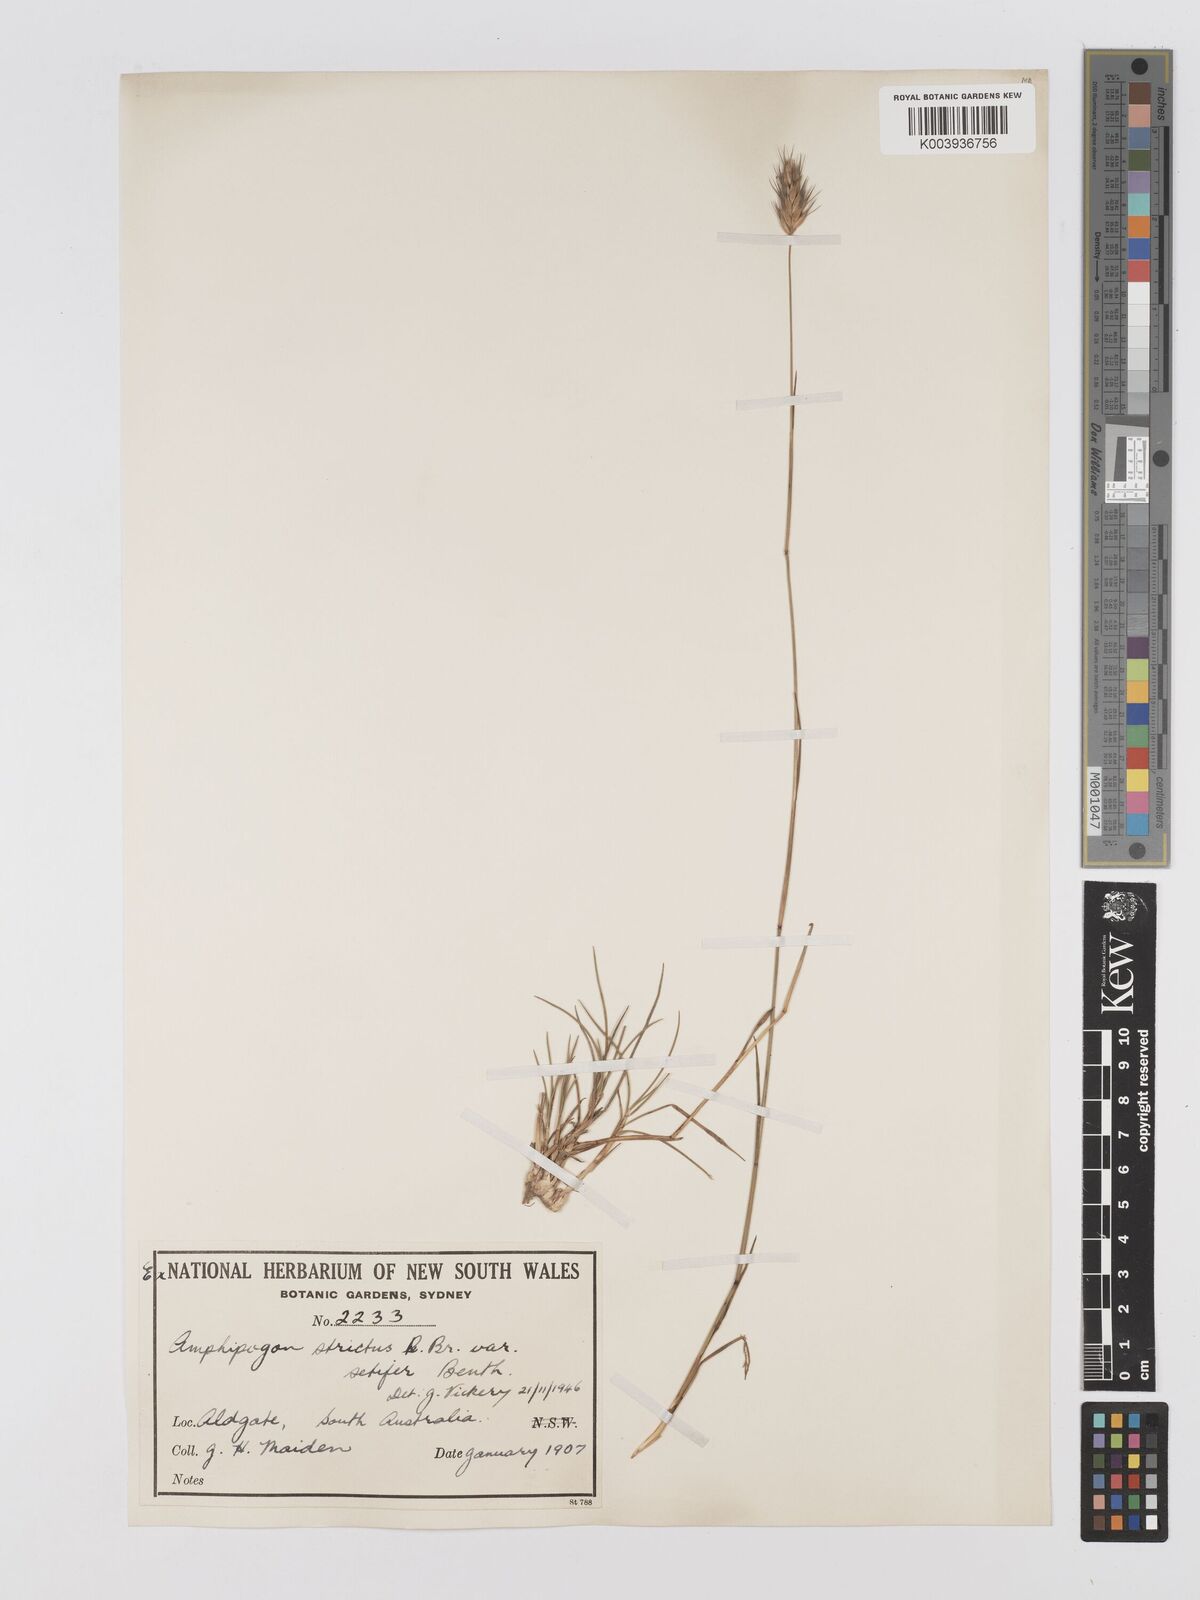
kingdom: Plantae
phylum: Tracheophyta
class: Liliopsida
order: Poales
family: Poaceae
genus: Amphipogon
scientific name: Amphipogon strictus
